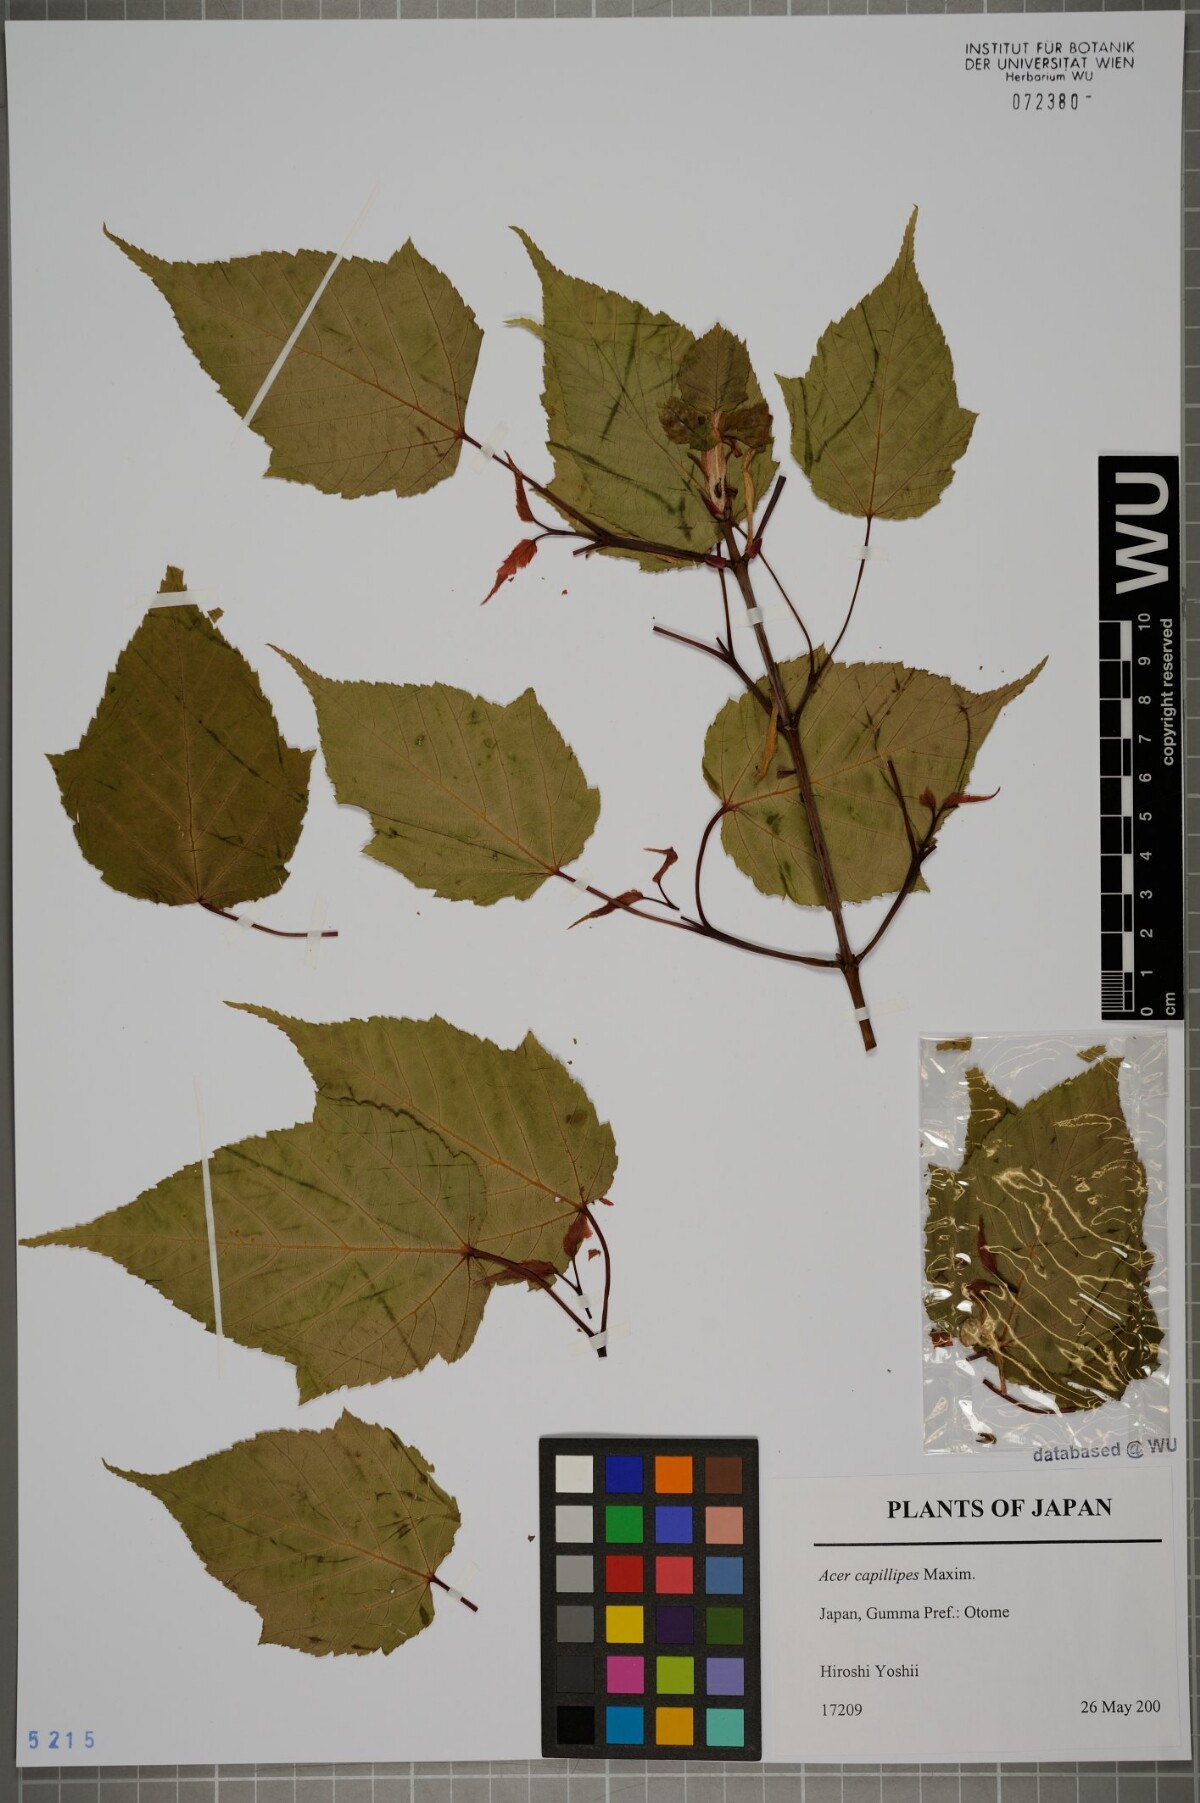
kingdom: Plantae
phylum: Tracheophyta
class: Magnoliopsida
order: Sapindales
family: Sapindaceae
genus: Acer
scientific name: Acer capillipes
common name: Kyushu maple
